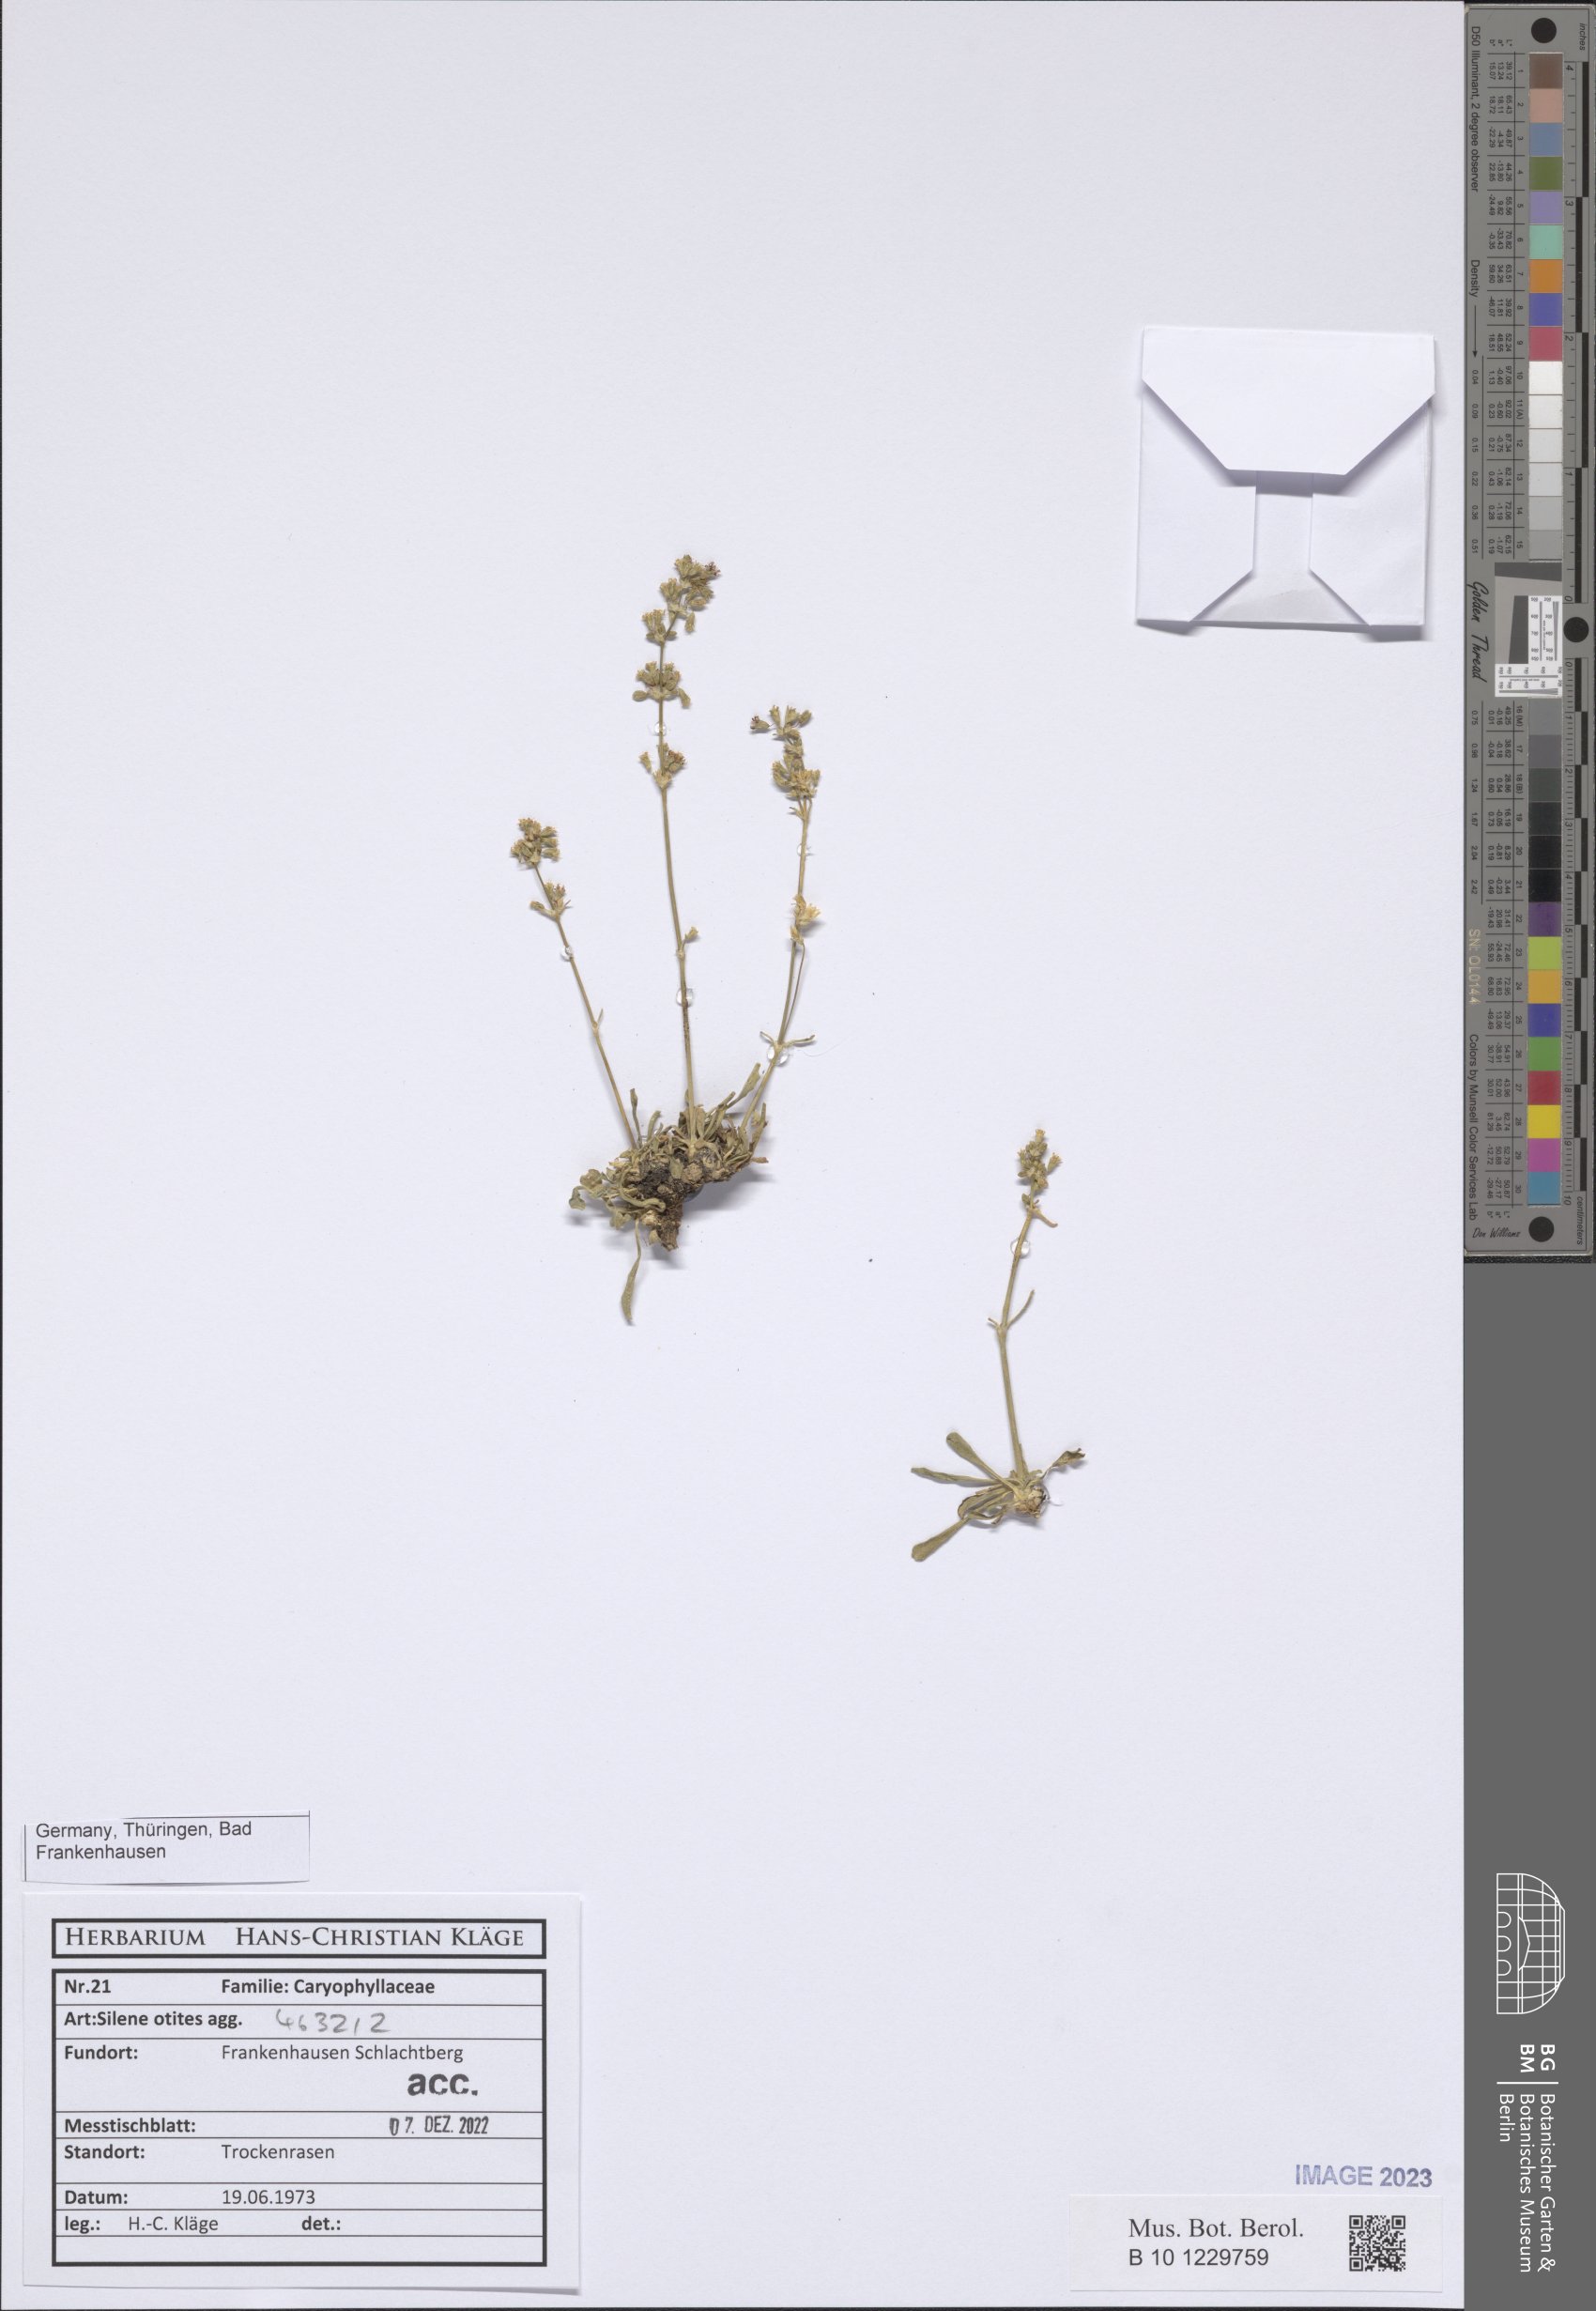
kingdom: Plantae
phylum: Tracheophyta
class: Magnoliopsida
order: Caryophyllales
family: Caryophyllaceae
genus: Silene
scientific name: Silene otites
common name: Spanish catchfly
